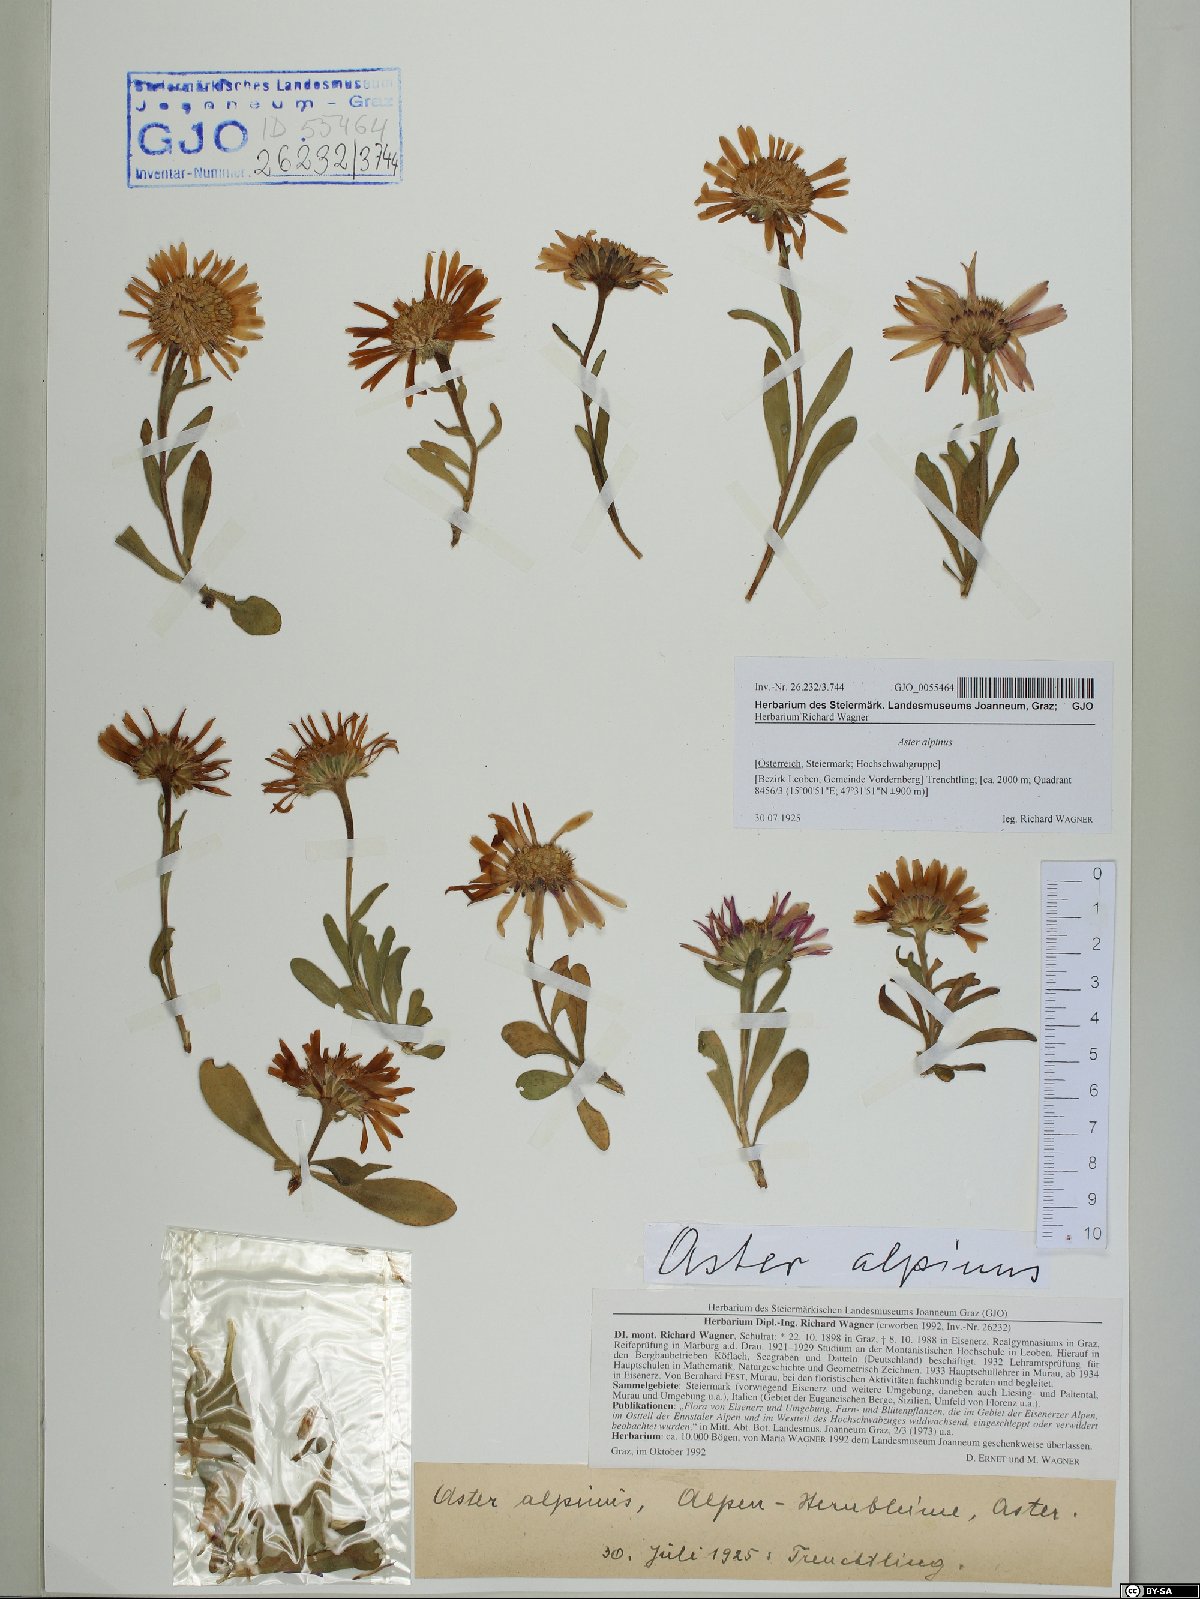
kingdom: Plantae
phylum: Tracheophyta
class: Magnoliopsida
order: Asterales
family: Asteraceae
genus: Aster
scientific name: Aster alpinus
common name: Alpine aster
